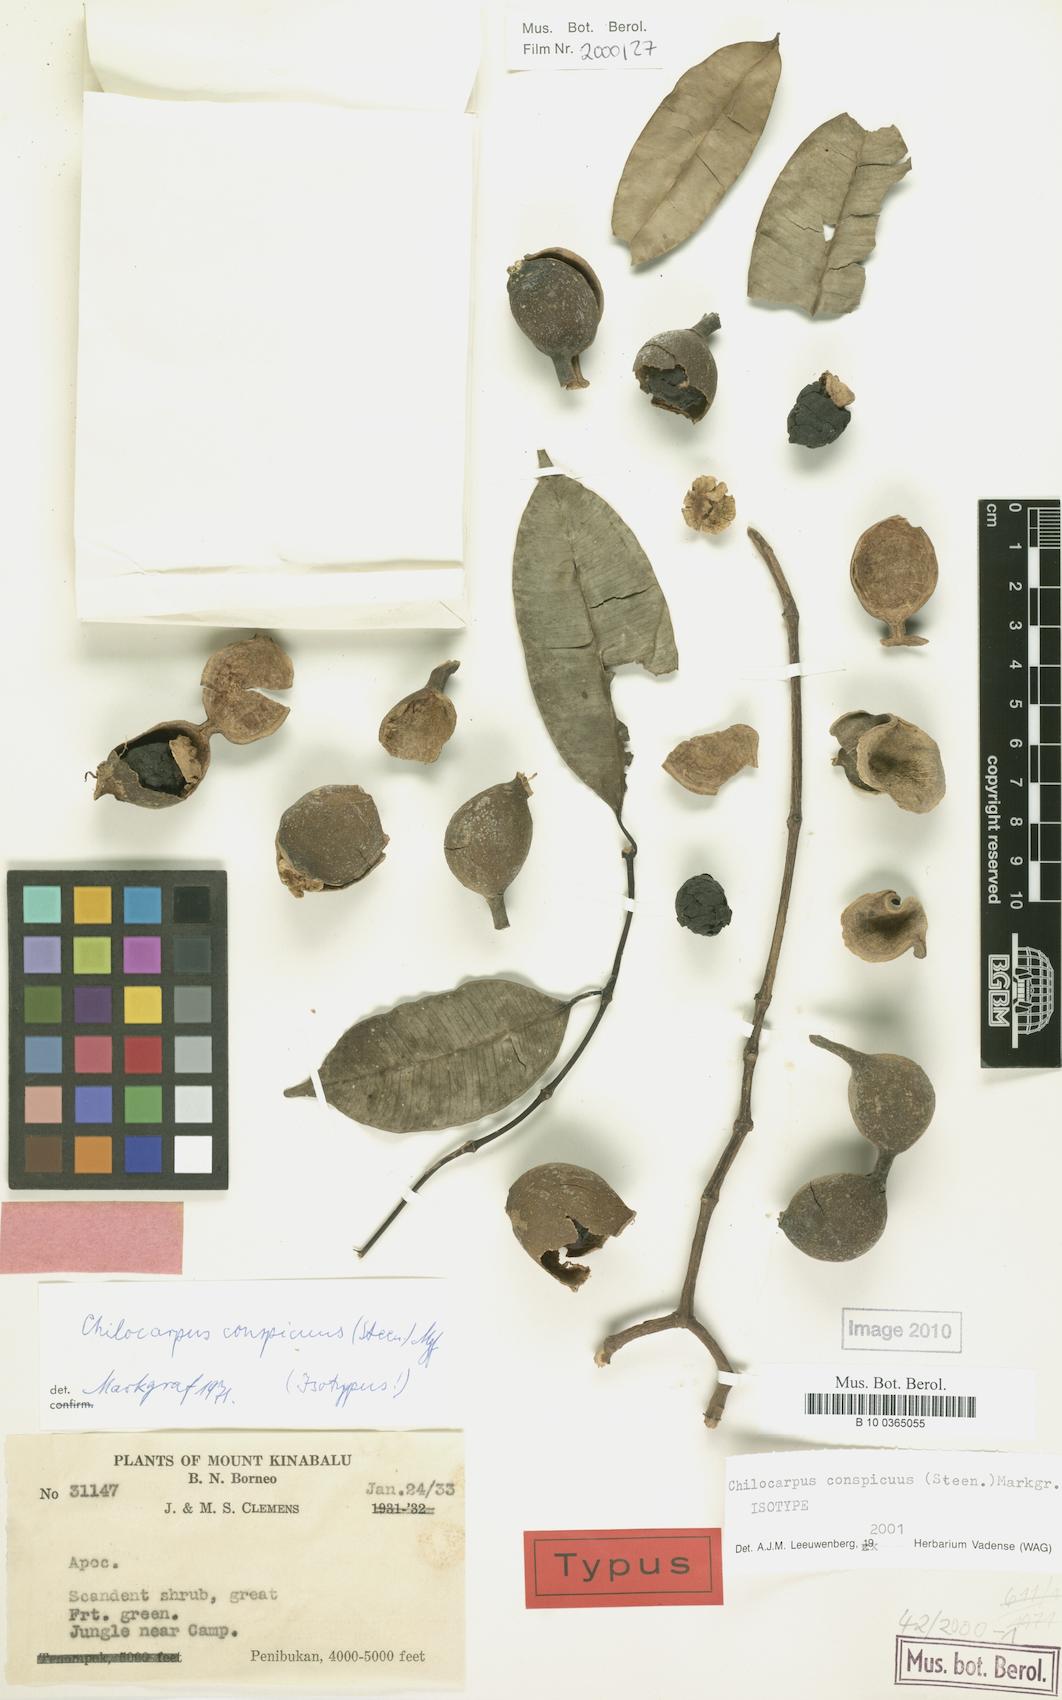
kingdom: Plantae
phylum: Tracheophyta
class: Magnoliopsida
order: Gentianales
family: Apocynaceae
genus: Chilocarpus
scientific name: Chilocarpus conspicuus
